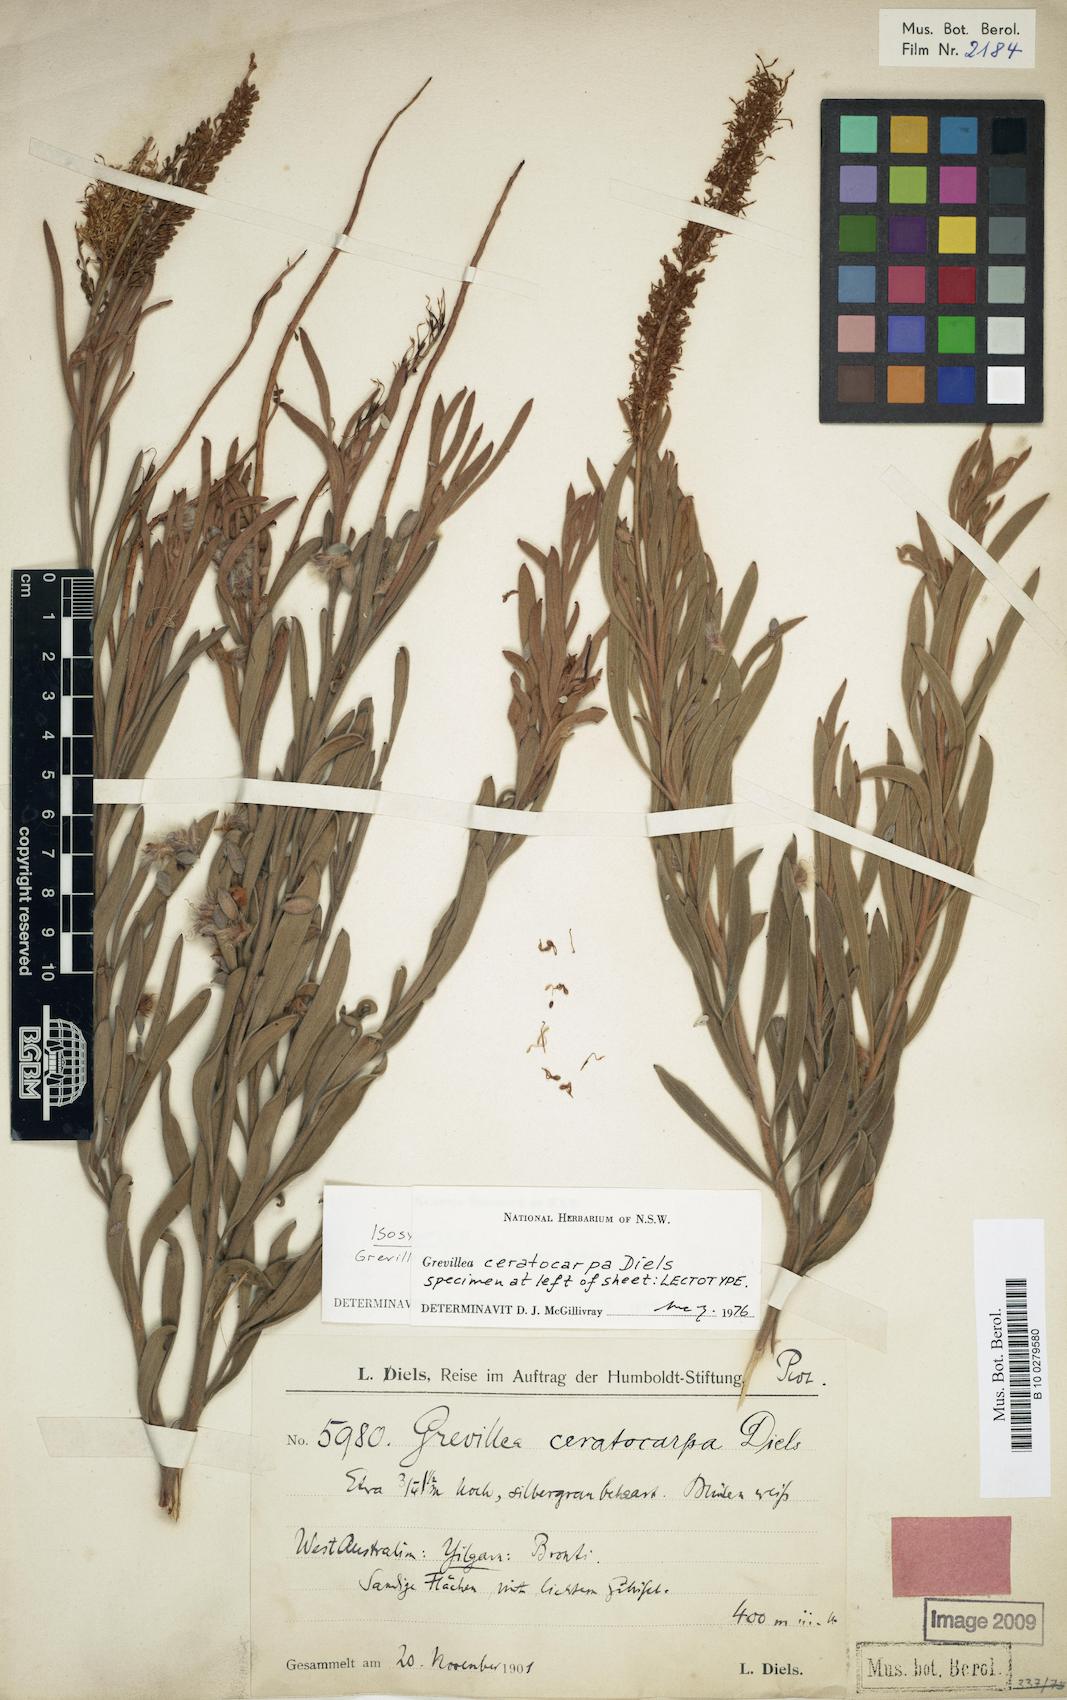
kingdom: Plantae
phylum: Tracheophyta
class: Magnoliopsida
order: Proteales
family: Proteaceae
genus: Grevillea
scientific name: Grevillea ceratocarpa
